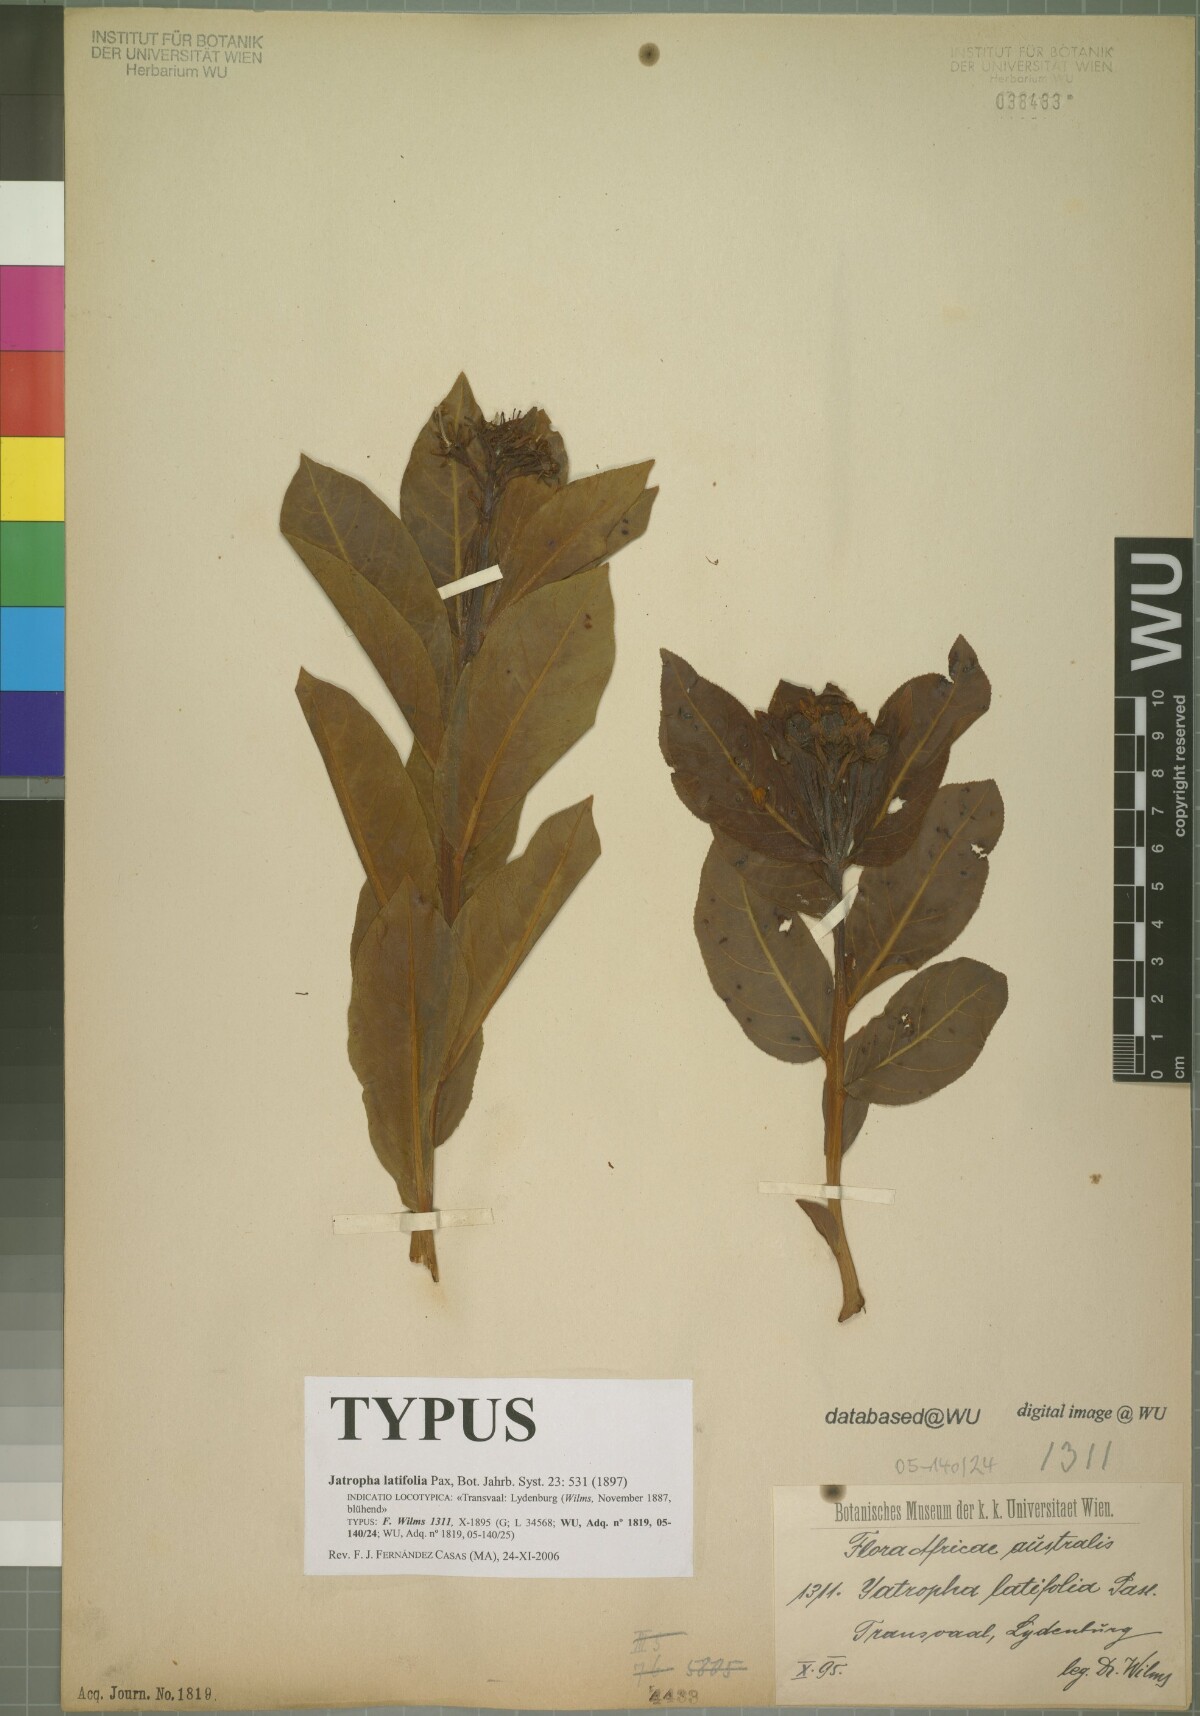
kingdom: Plantae
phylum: Tracheophyta
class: Magnoliopsida
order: Malpighiales
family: Euphorbiaceae
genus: Jatropha
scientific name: Jatropha latifolia
